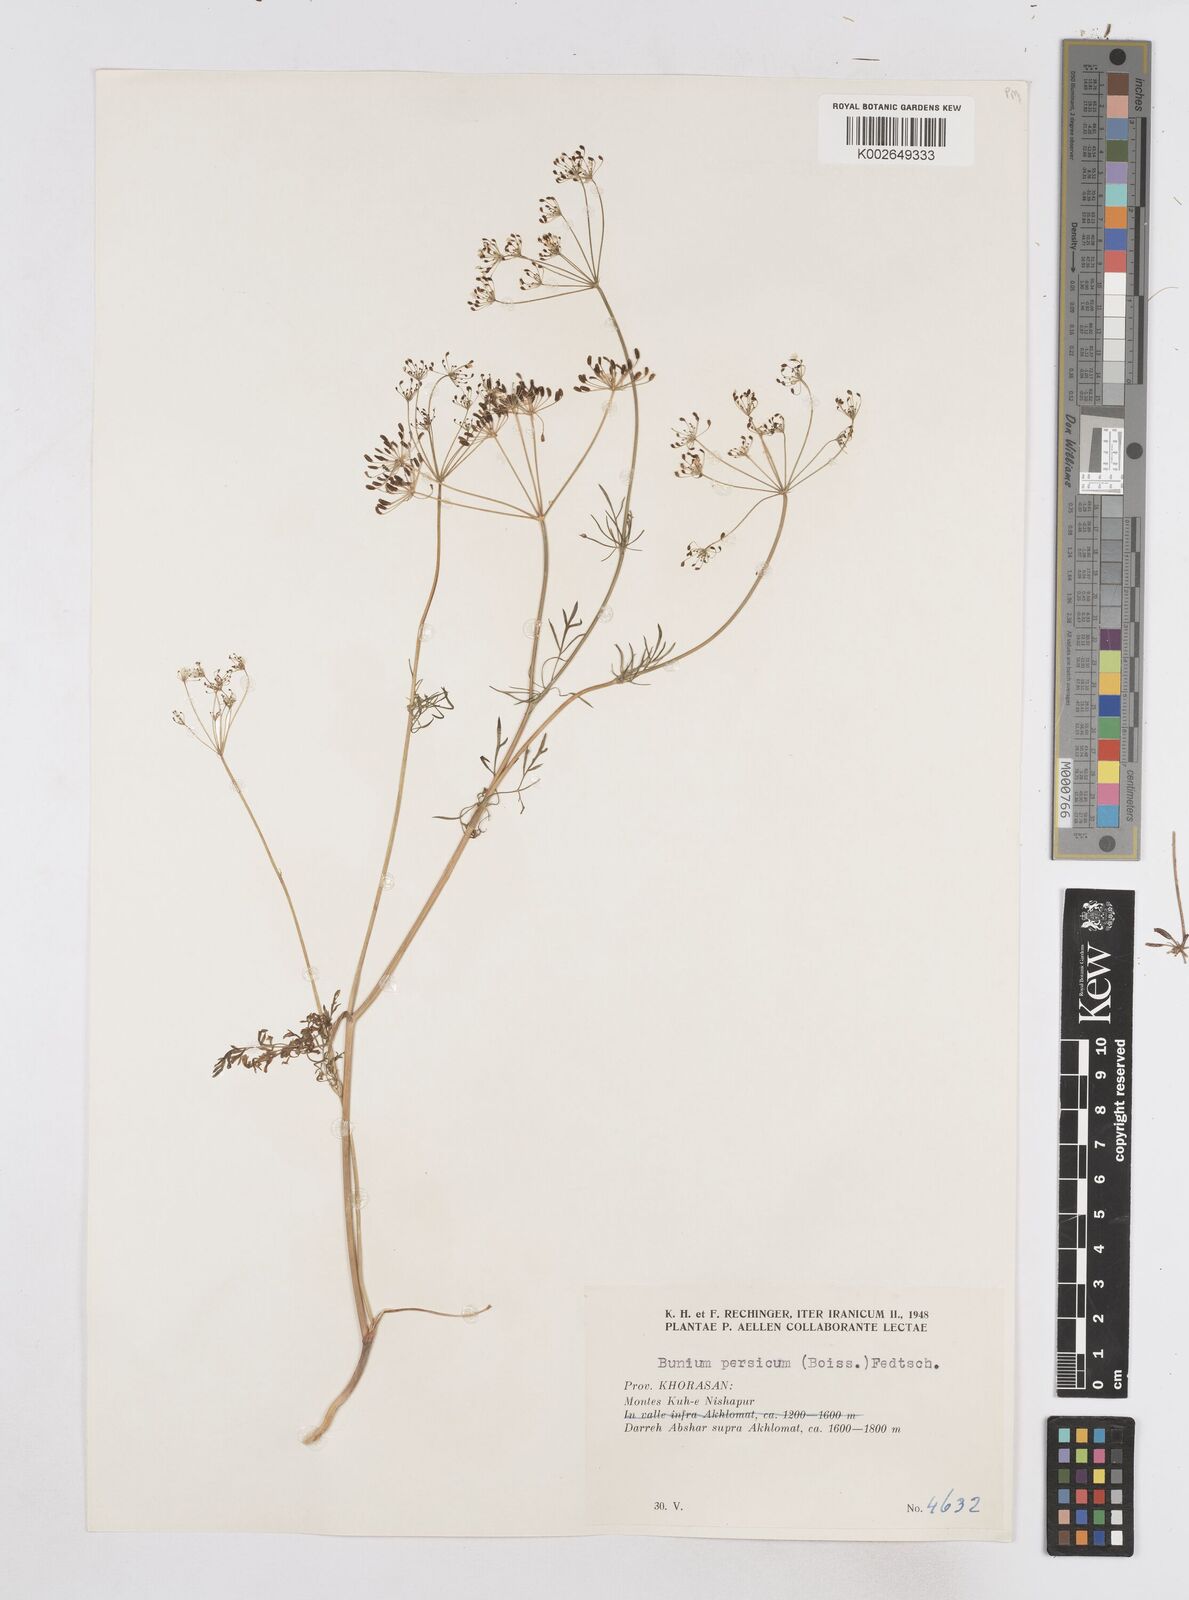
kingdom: Plantae
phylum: Tracheophyta
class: Magnoliopsida
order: Apiales
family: Apiaceae
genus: Elwendia
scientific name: Elwendia persica
